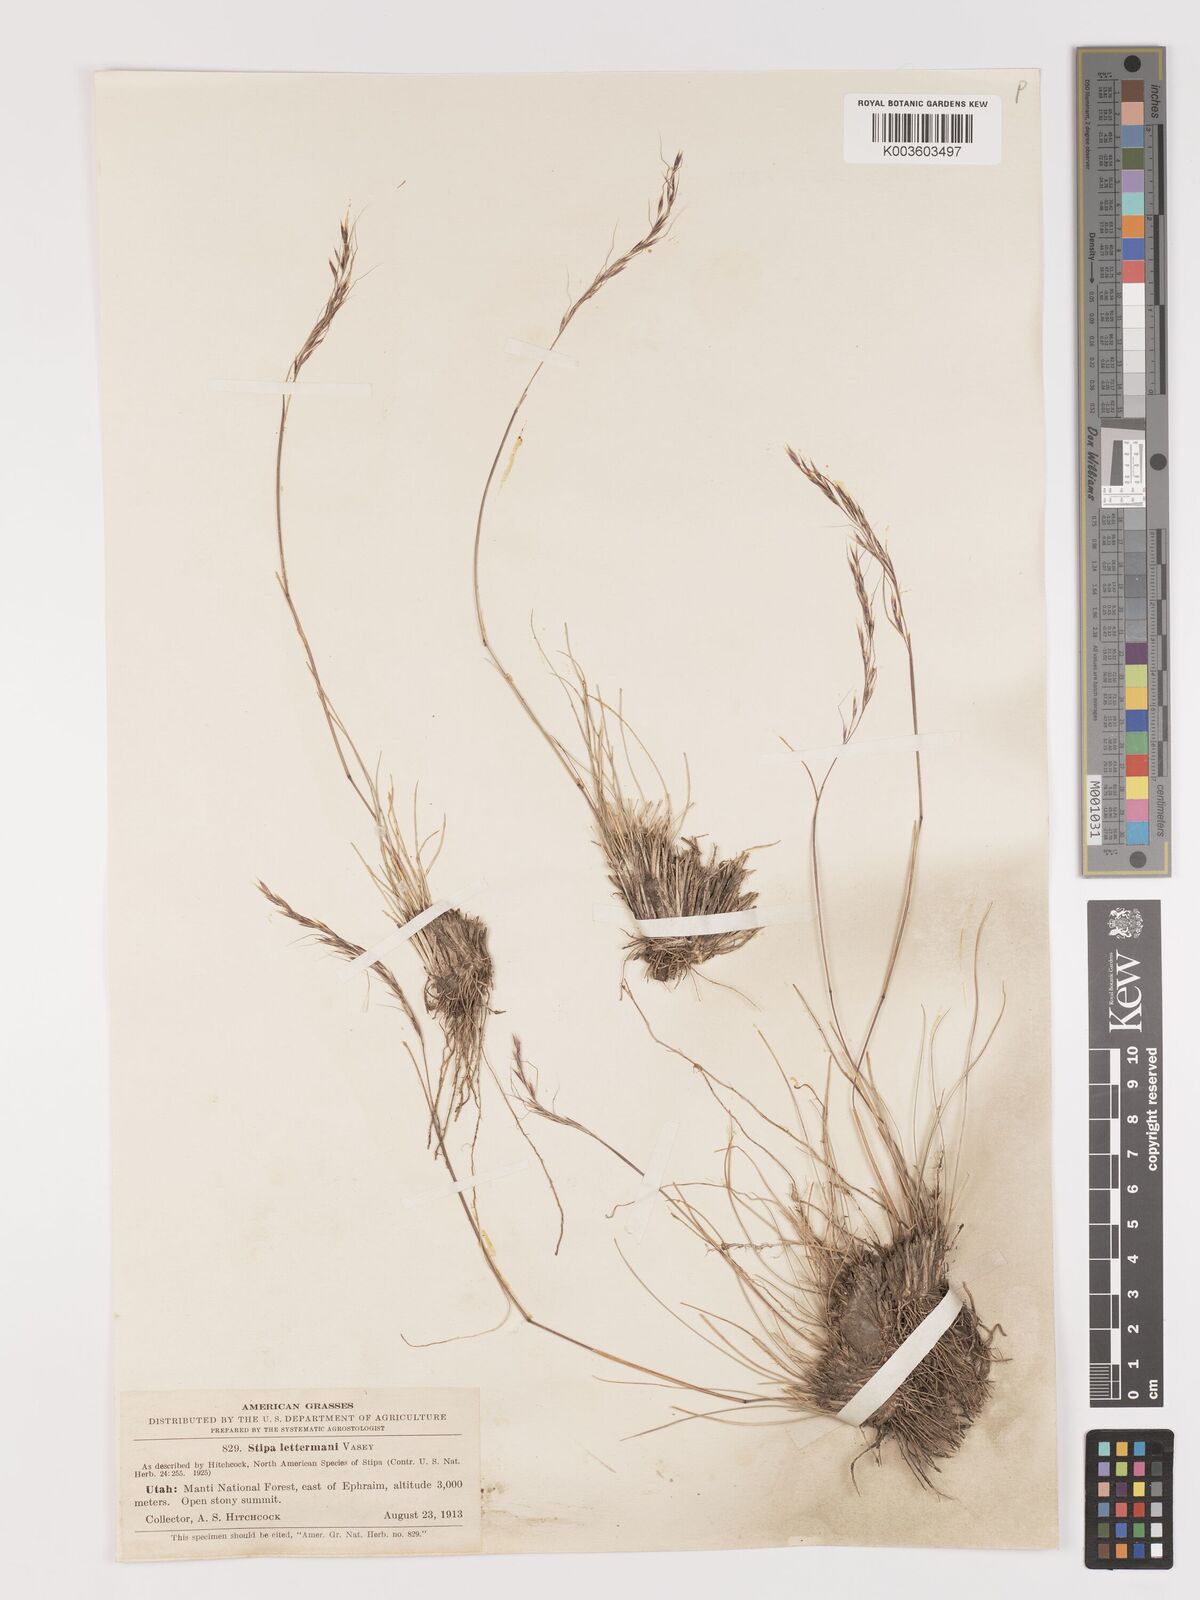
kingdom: Plantae
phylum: Tracheophyta
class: Liliopsida
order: Poales
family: Poaceae
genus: Eriocoma
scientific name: Eriocoma lettermanii
